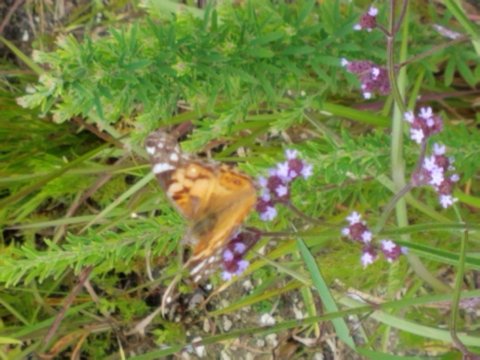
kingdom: Animalia
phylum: Arthropoda
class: Insecta
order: Lepidoptera
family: Nymphalidae
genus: Vanessa
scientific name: Vanessa virginiensis
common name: American Lady
